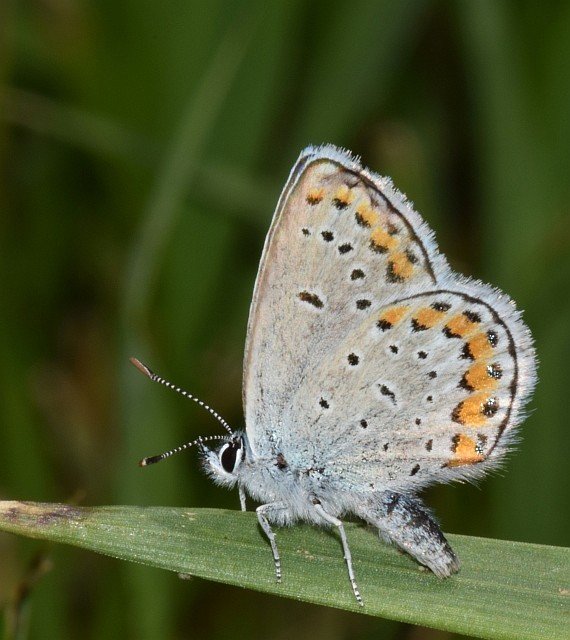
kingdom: Animalia
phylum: Arthropoda
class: Insecta
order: Lepidoptera
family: Lycaenidae
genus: Lycaeides
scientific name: Lycaeides melissa
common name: Melissa Blue
